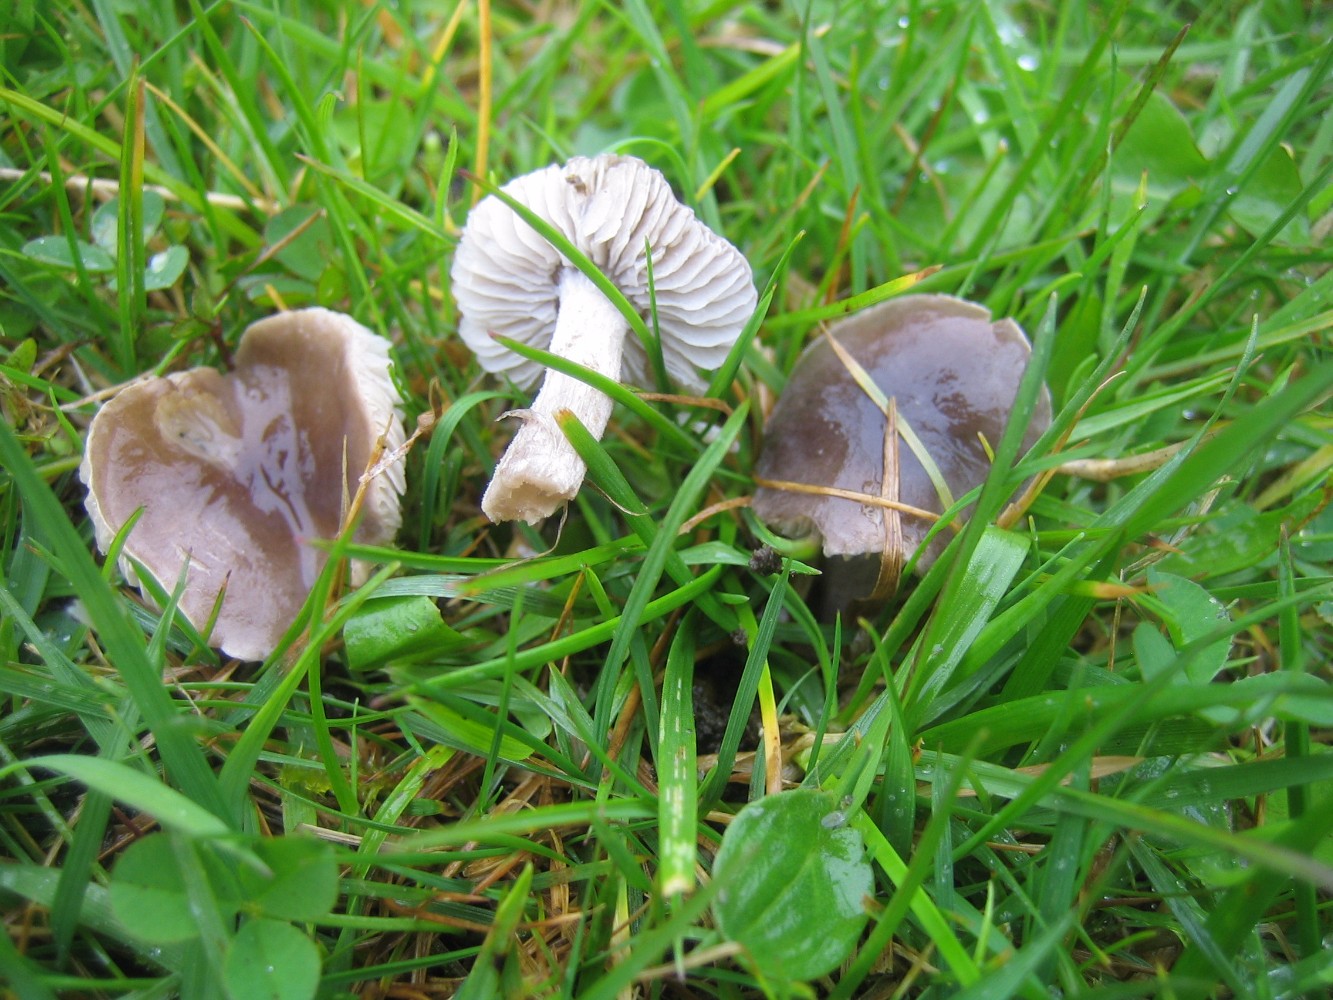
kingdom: Fungi
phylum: Basidiomycota
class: Agaricomycetes
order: Agaricales
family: Tricholomataceae
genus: Dermoloma
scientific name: Dermoloma cuneifolium
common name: eng-nonnehat
